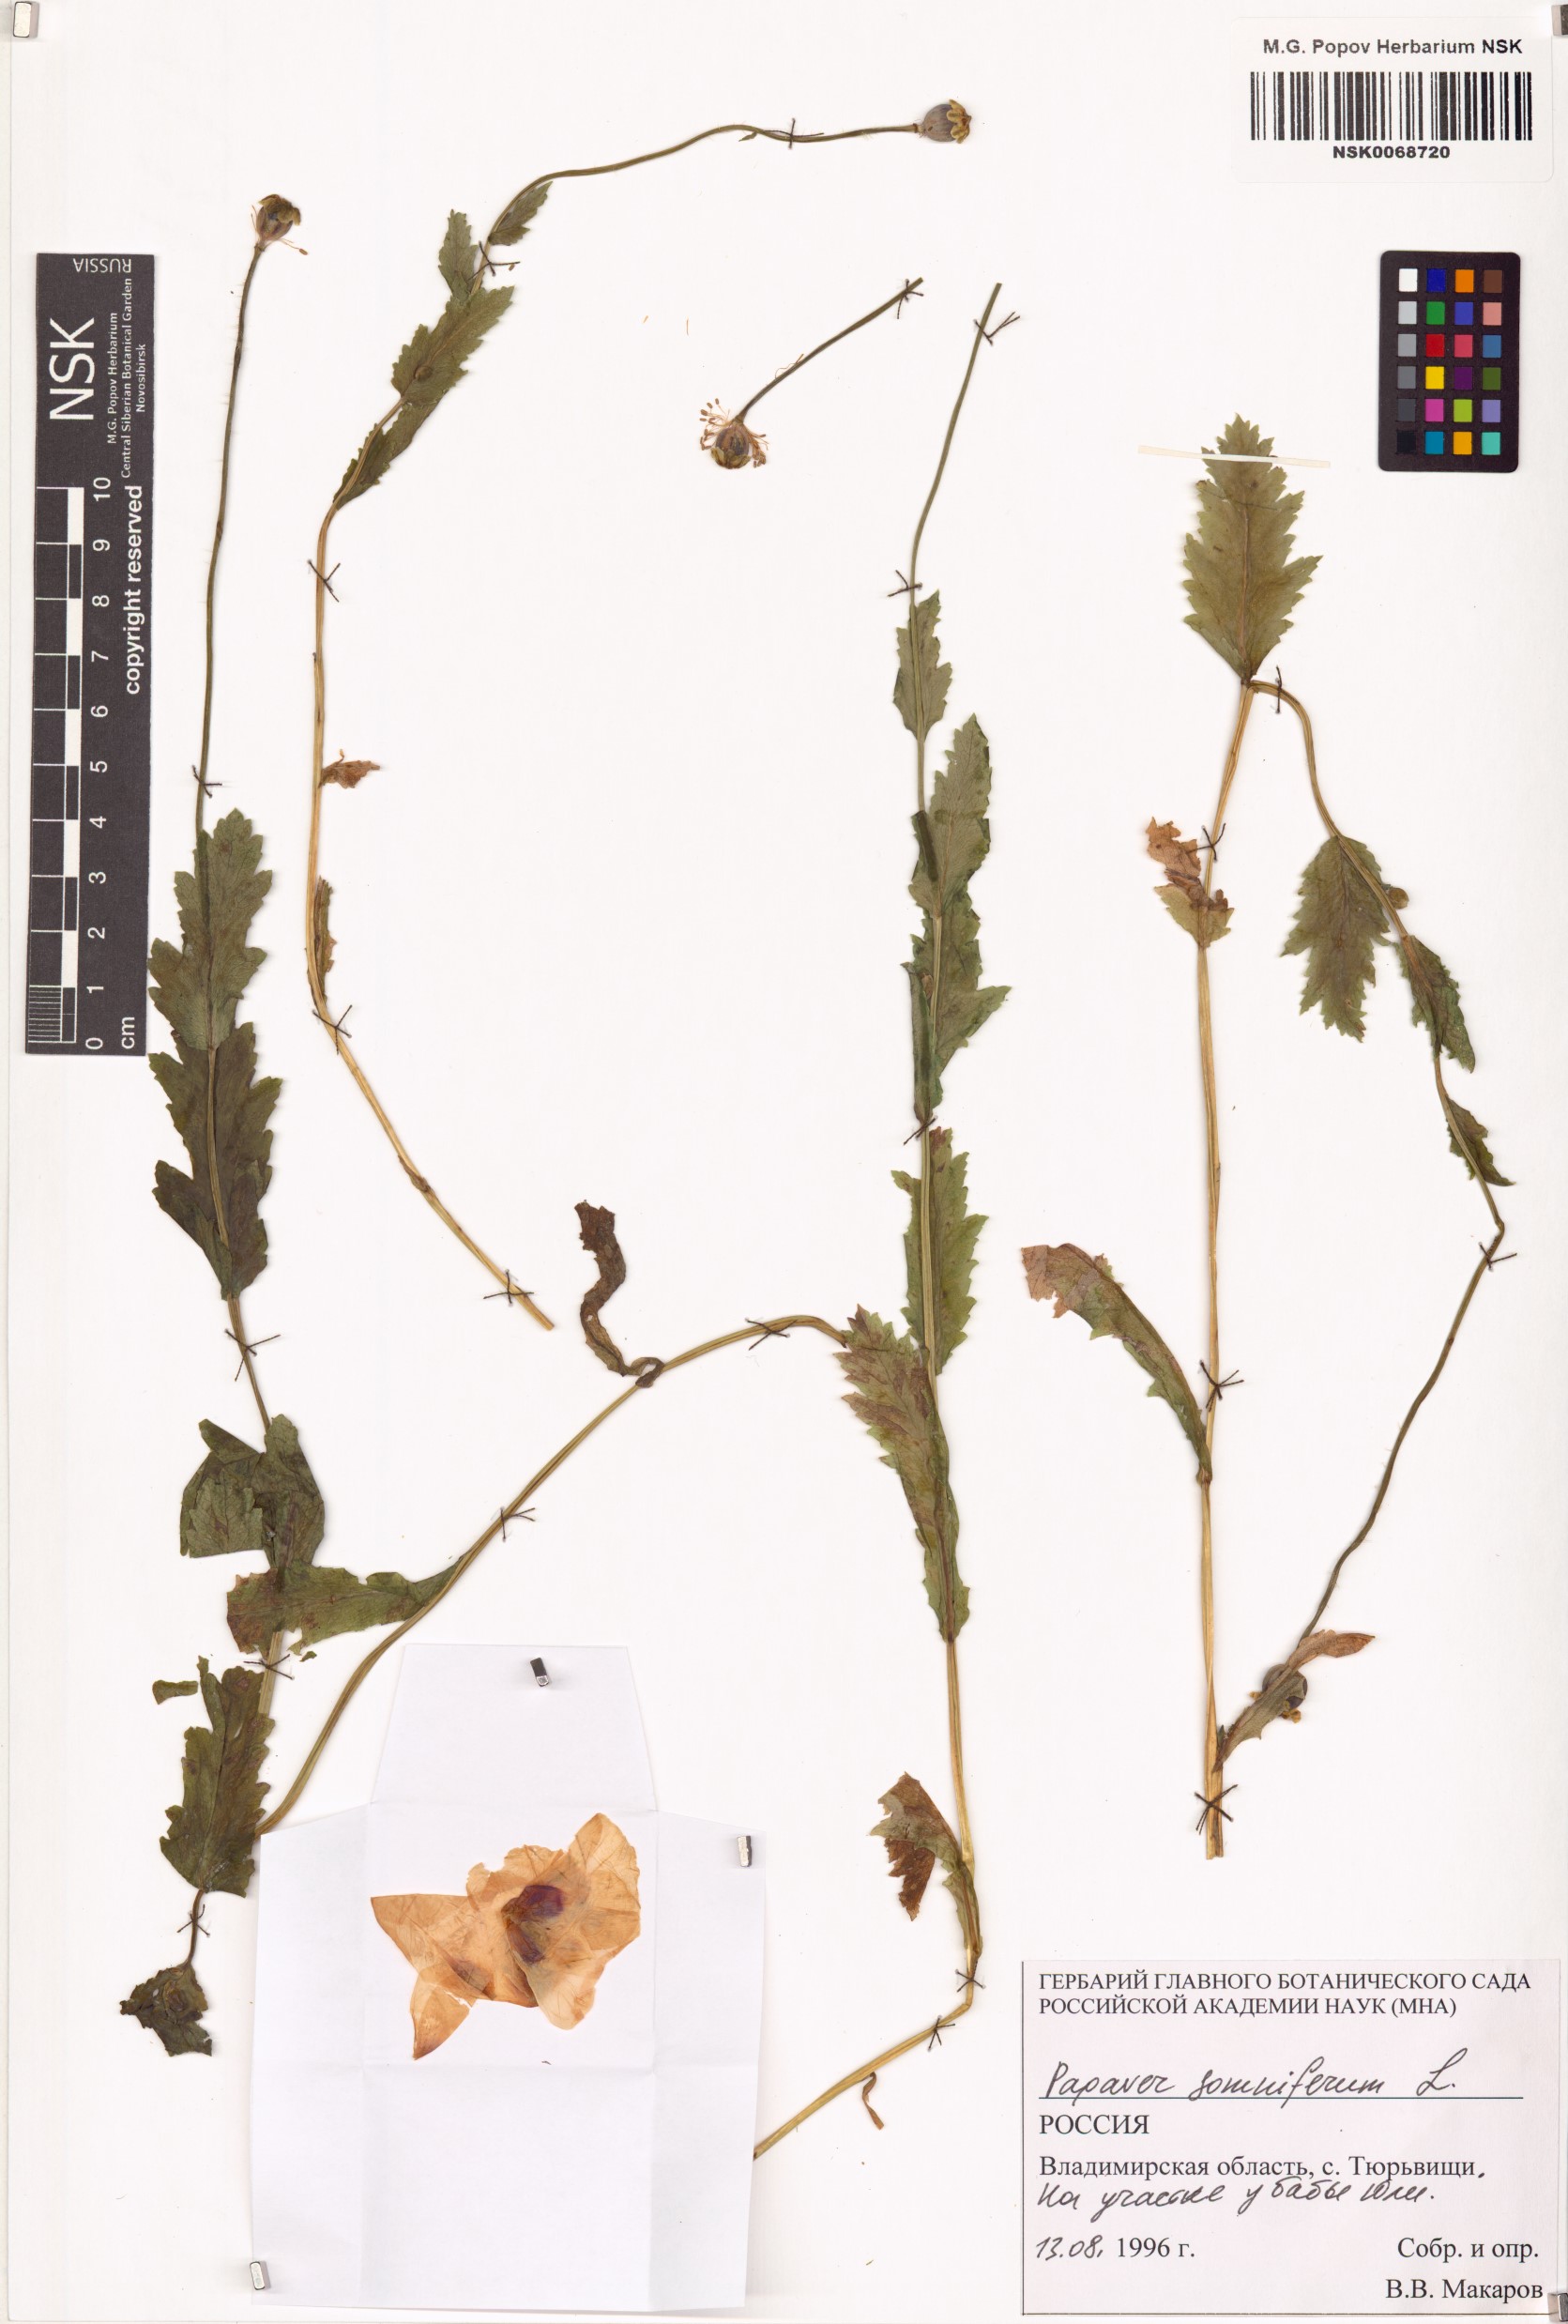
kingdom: Plantae
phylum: Tracheophyta
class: Magnoliopsida
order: Ranunculales
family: Papaveraceae
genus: Papaver
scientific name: Papaver somniferum
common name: Opium poppy
